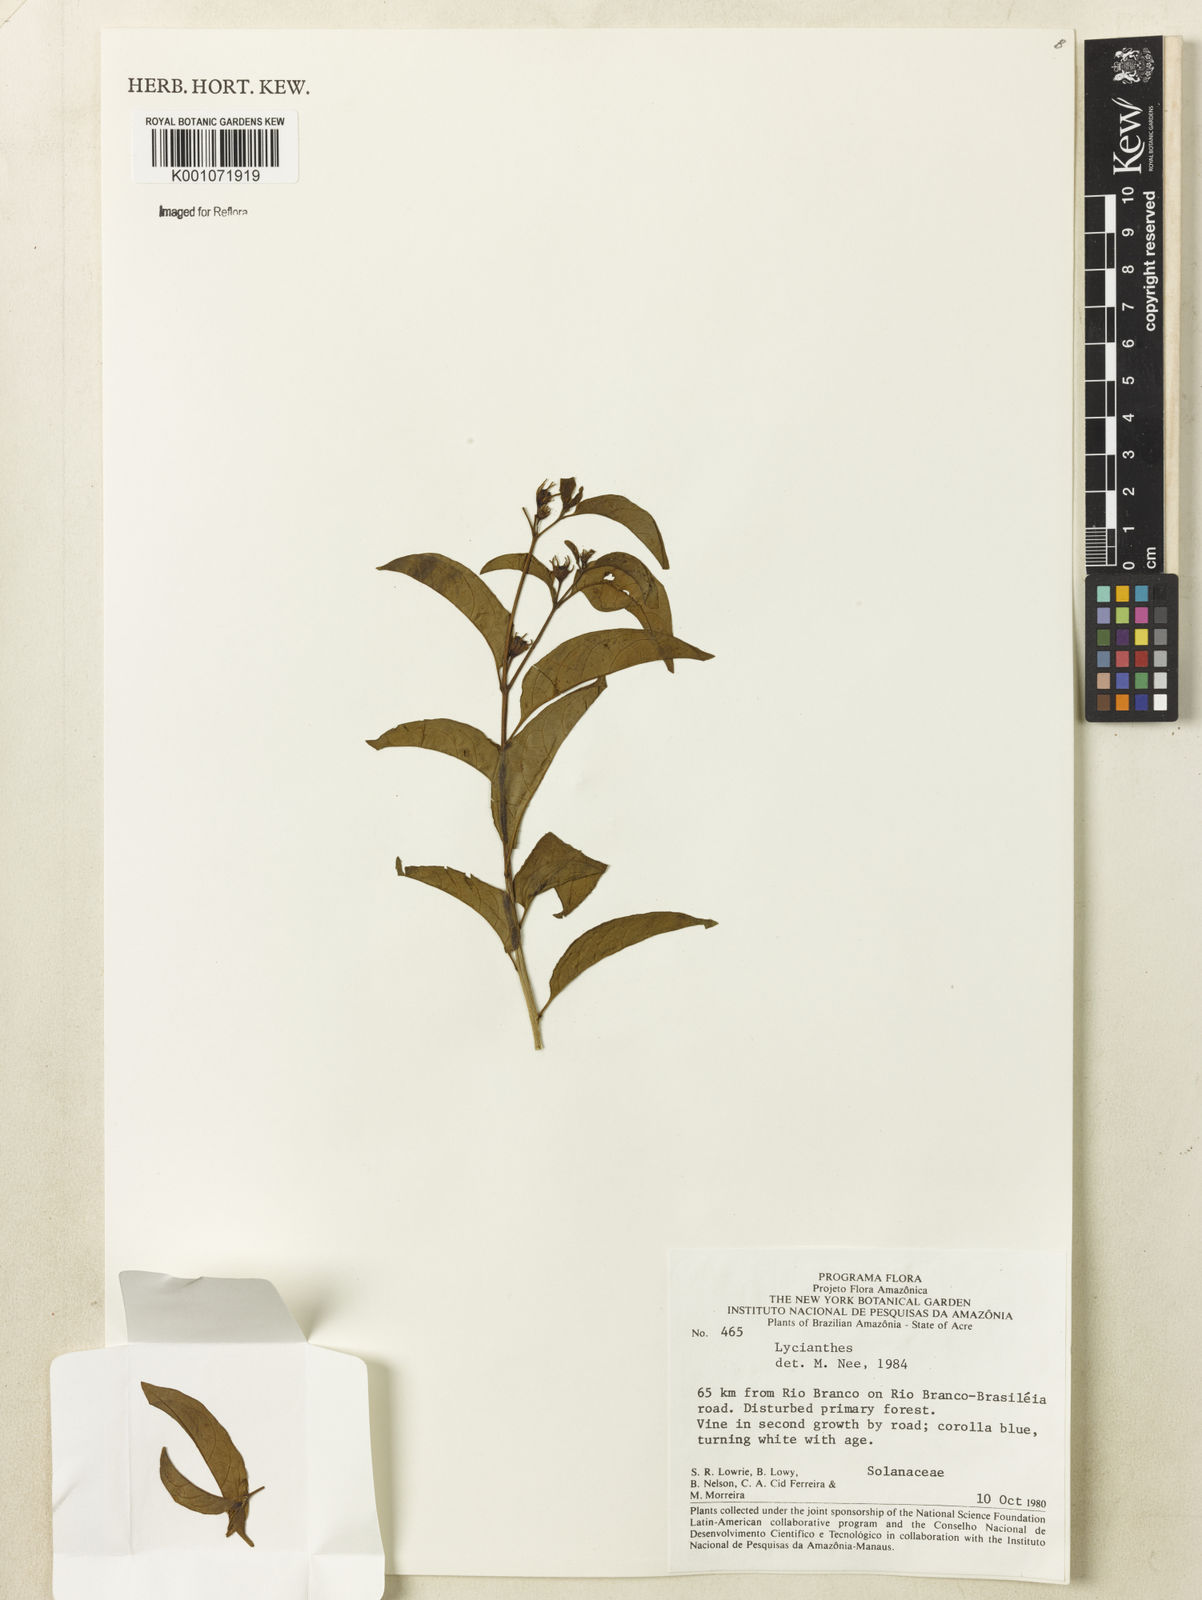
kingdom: Plantae
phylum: Tracheophyta
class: Magnoliopsida
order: Solanales
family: Solanaceae
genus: Lycianthes
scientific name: Lycianthes
